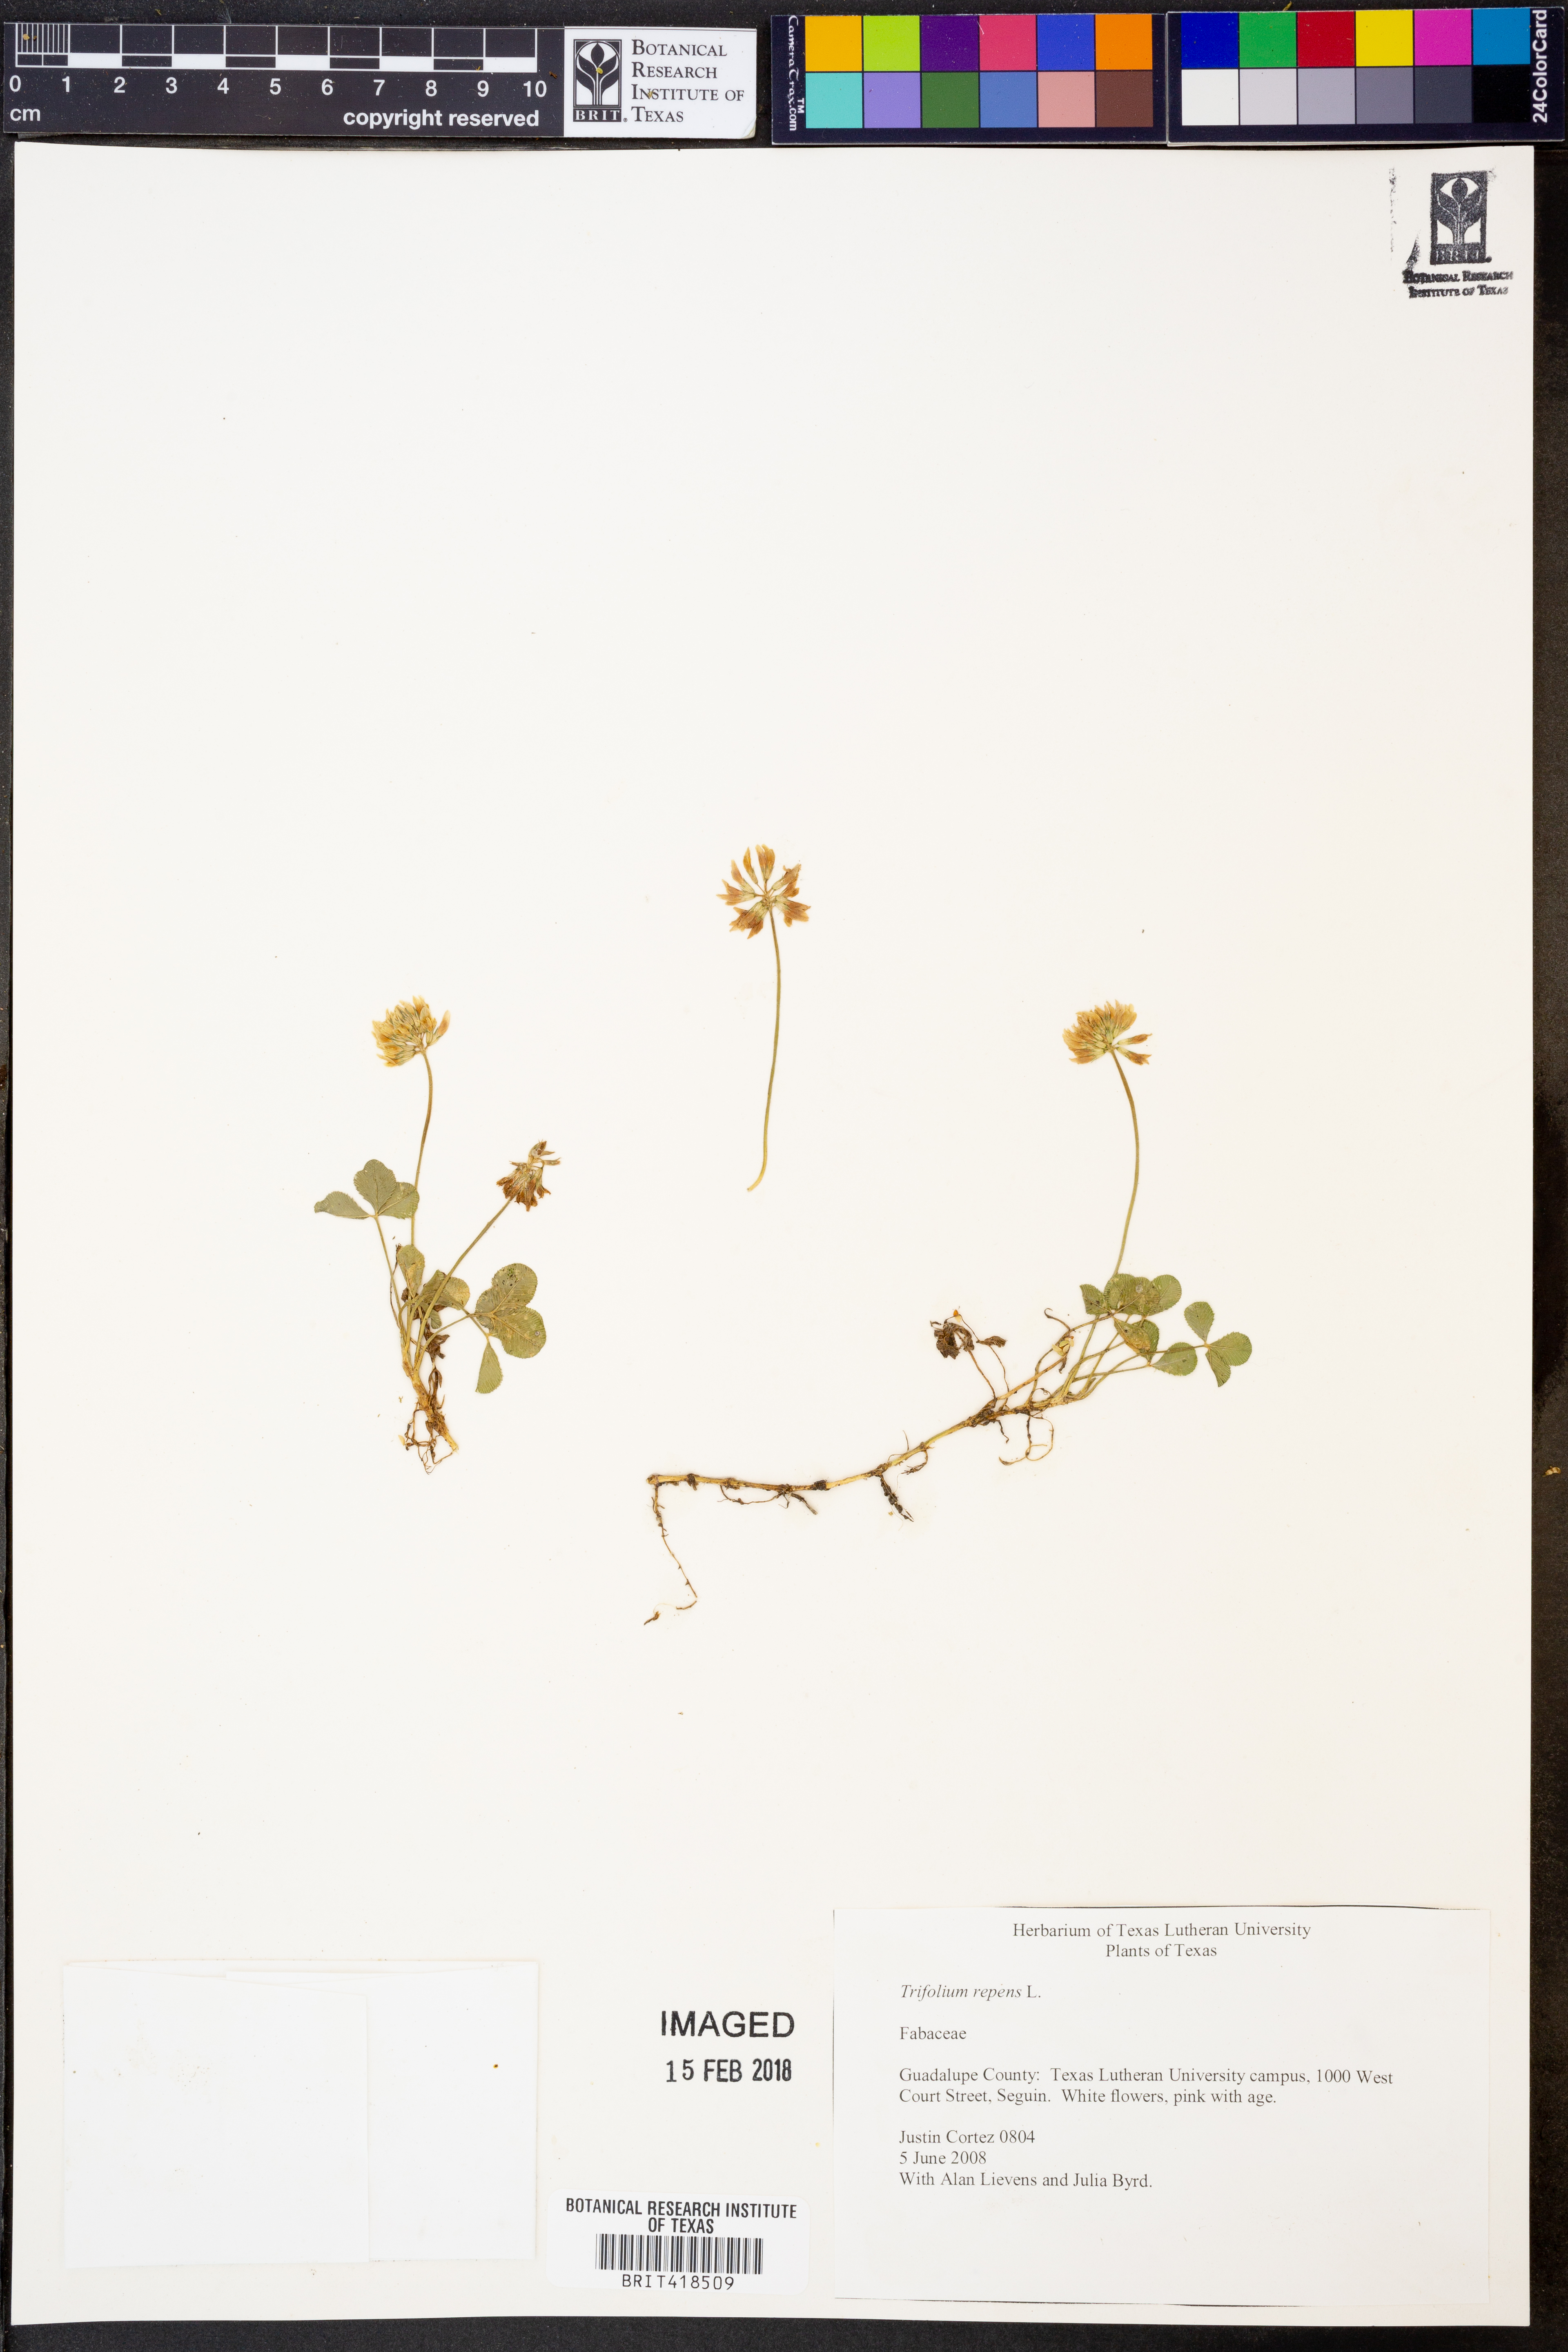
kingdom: Plantae
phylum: Tracheophyta
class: Magnoliopsida
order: Fabales
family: Fabaceae
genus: Trifolium
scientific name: Trifolium repens
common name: White clover
